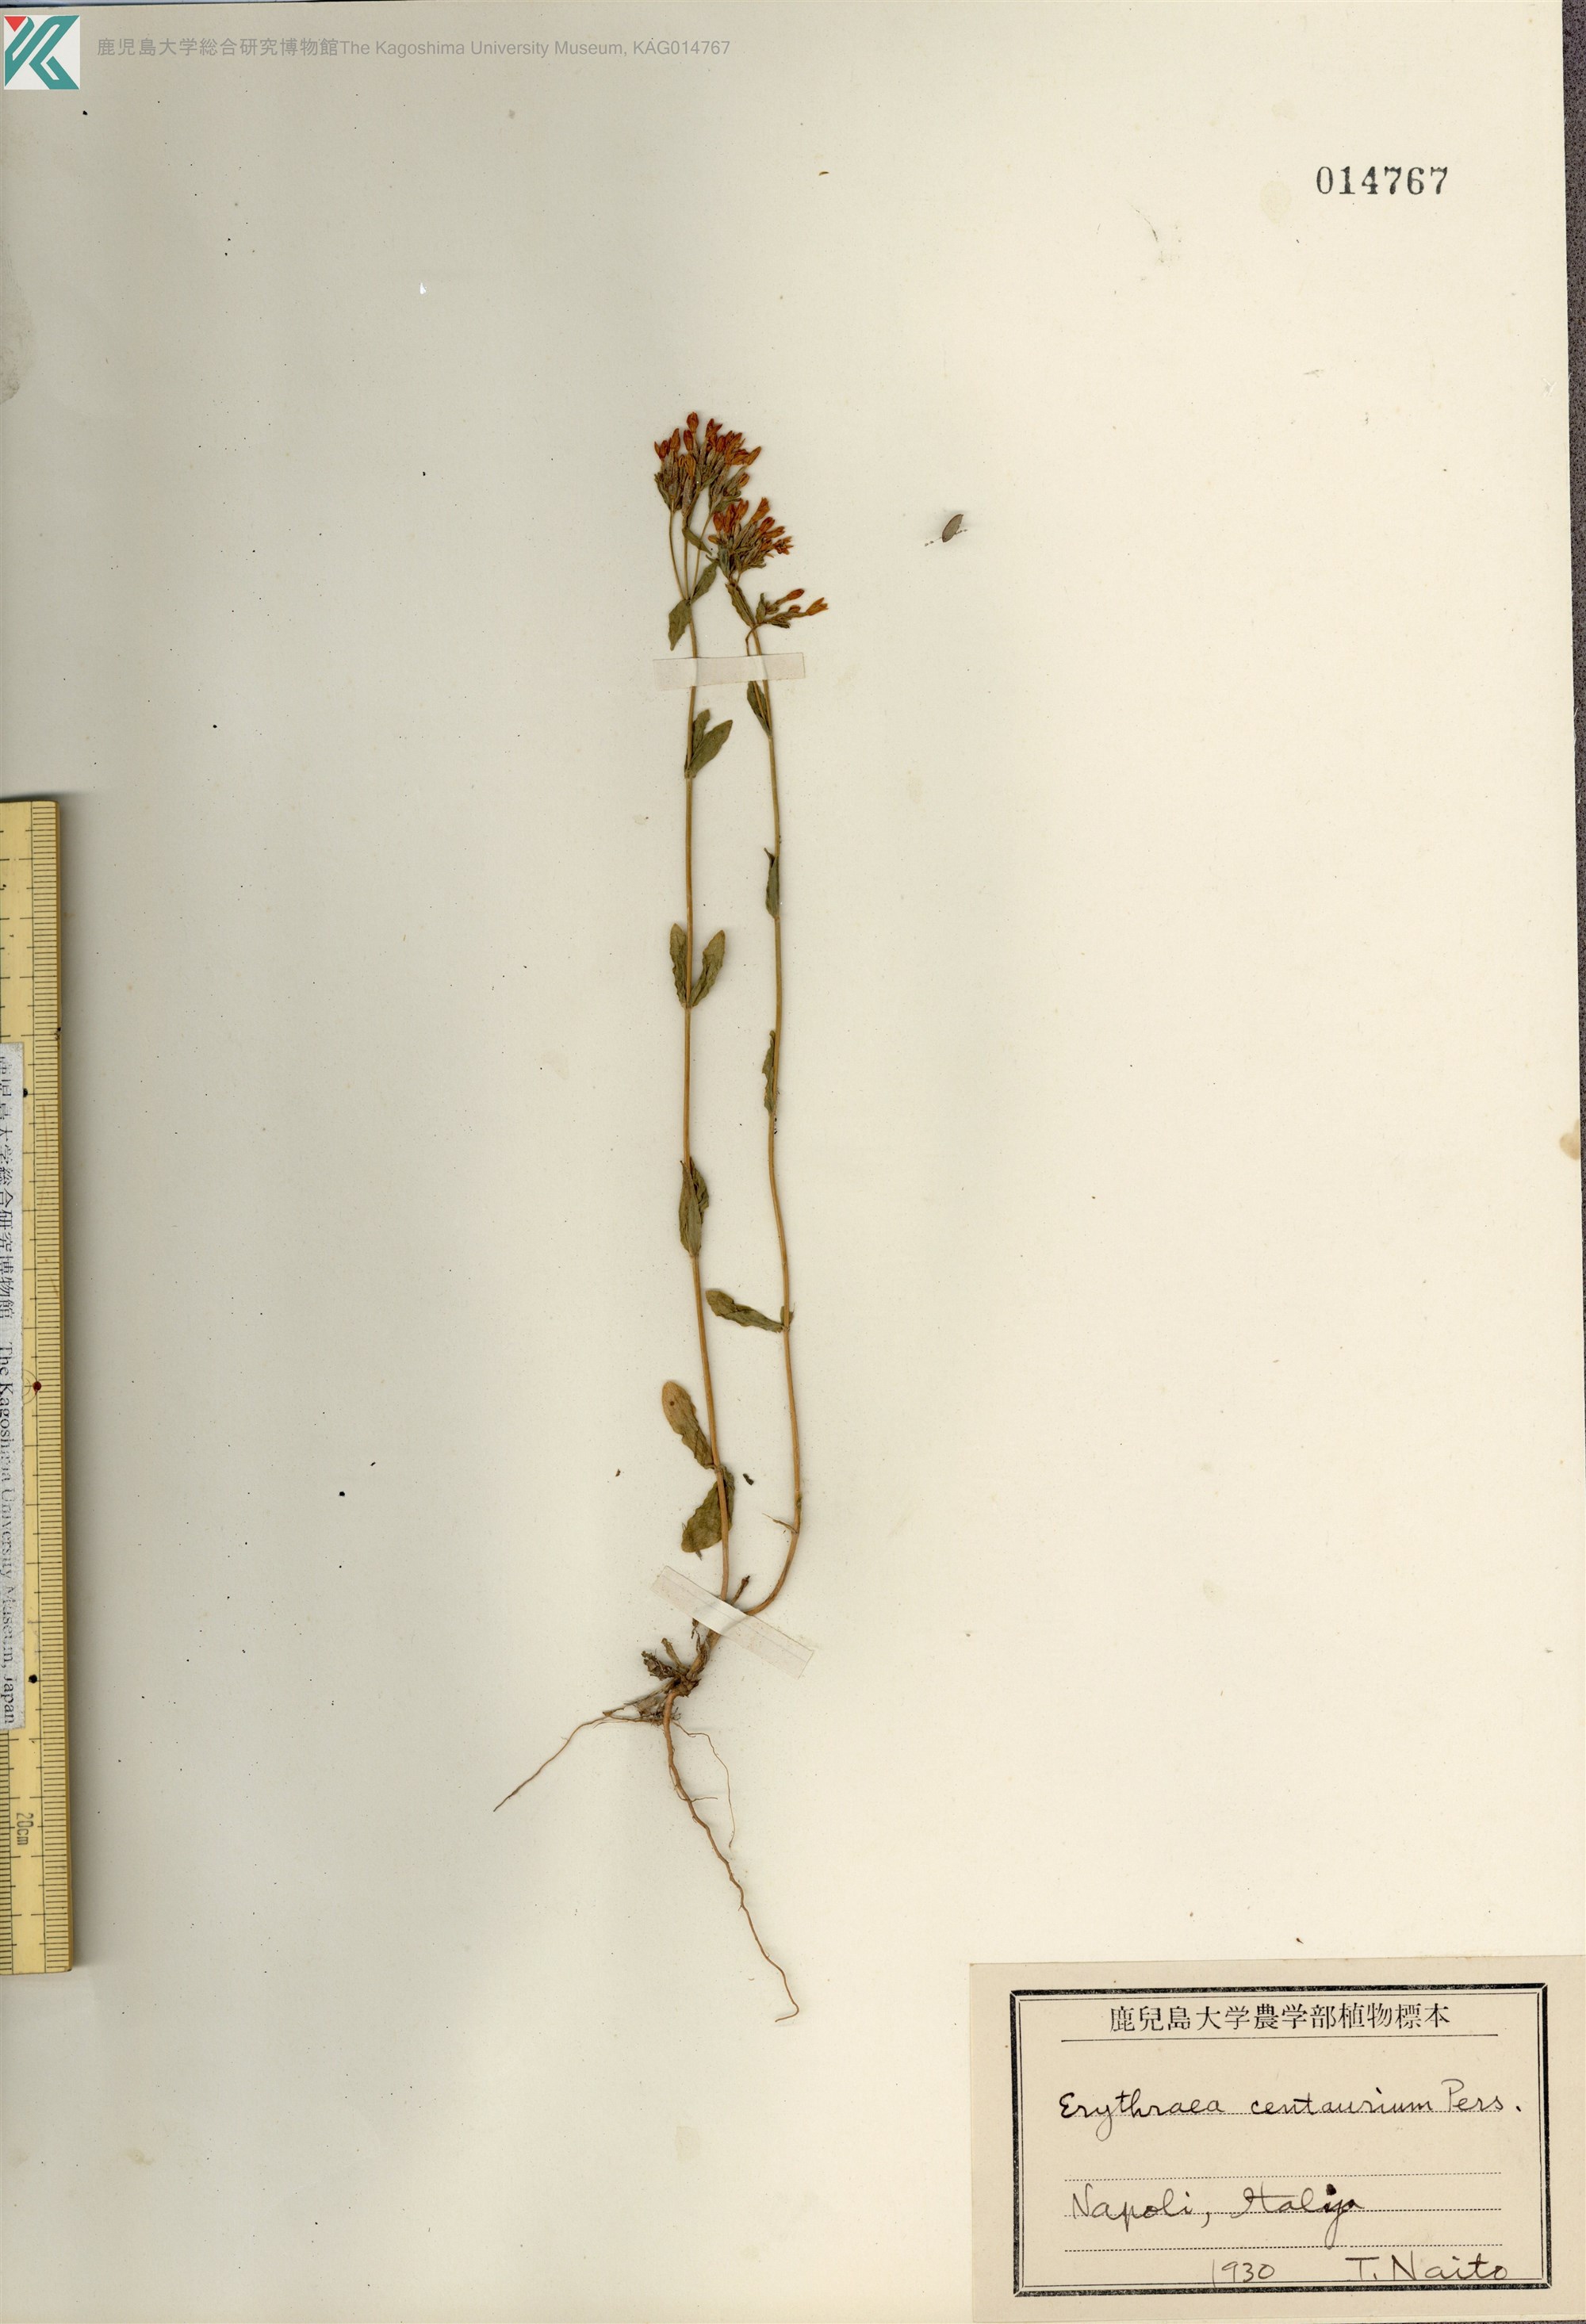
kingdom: Plantae
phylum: Tracheophyta
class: Magnoliopsida
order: Gentianales
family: Gentianaceae
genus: Centaurium
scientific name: Centaurium erythraea
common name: Common centaury
